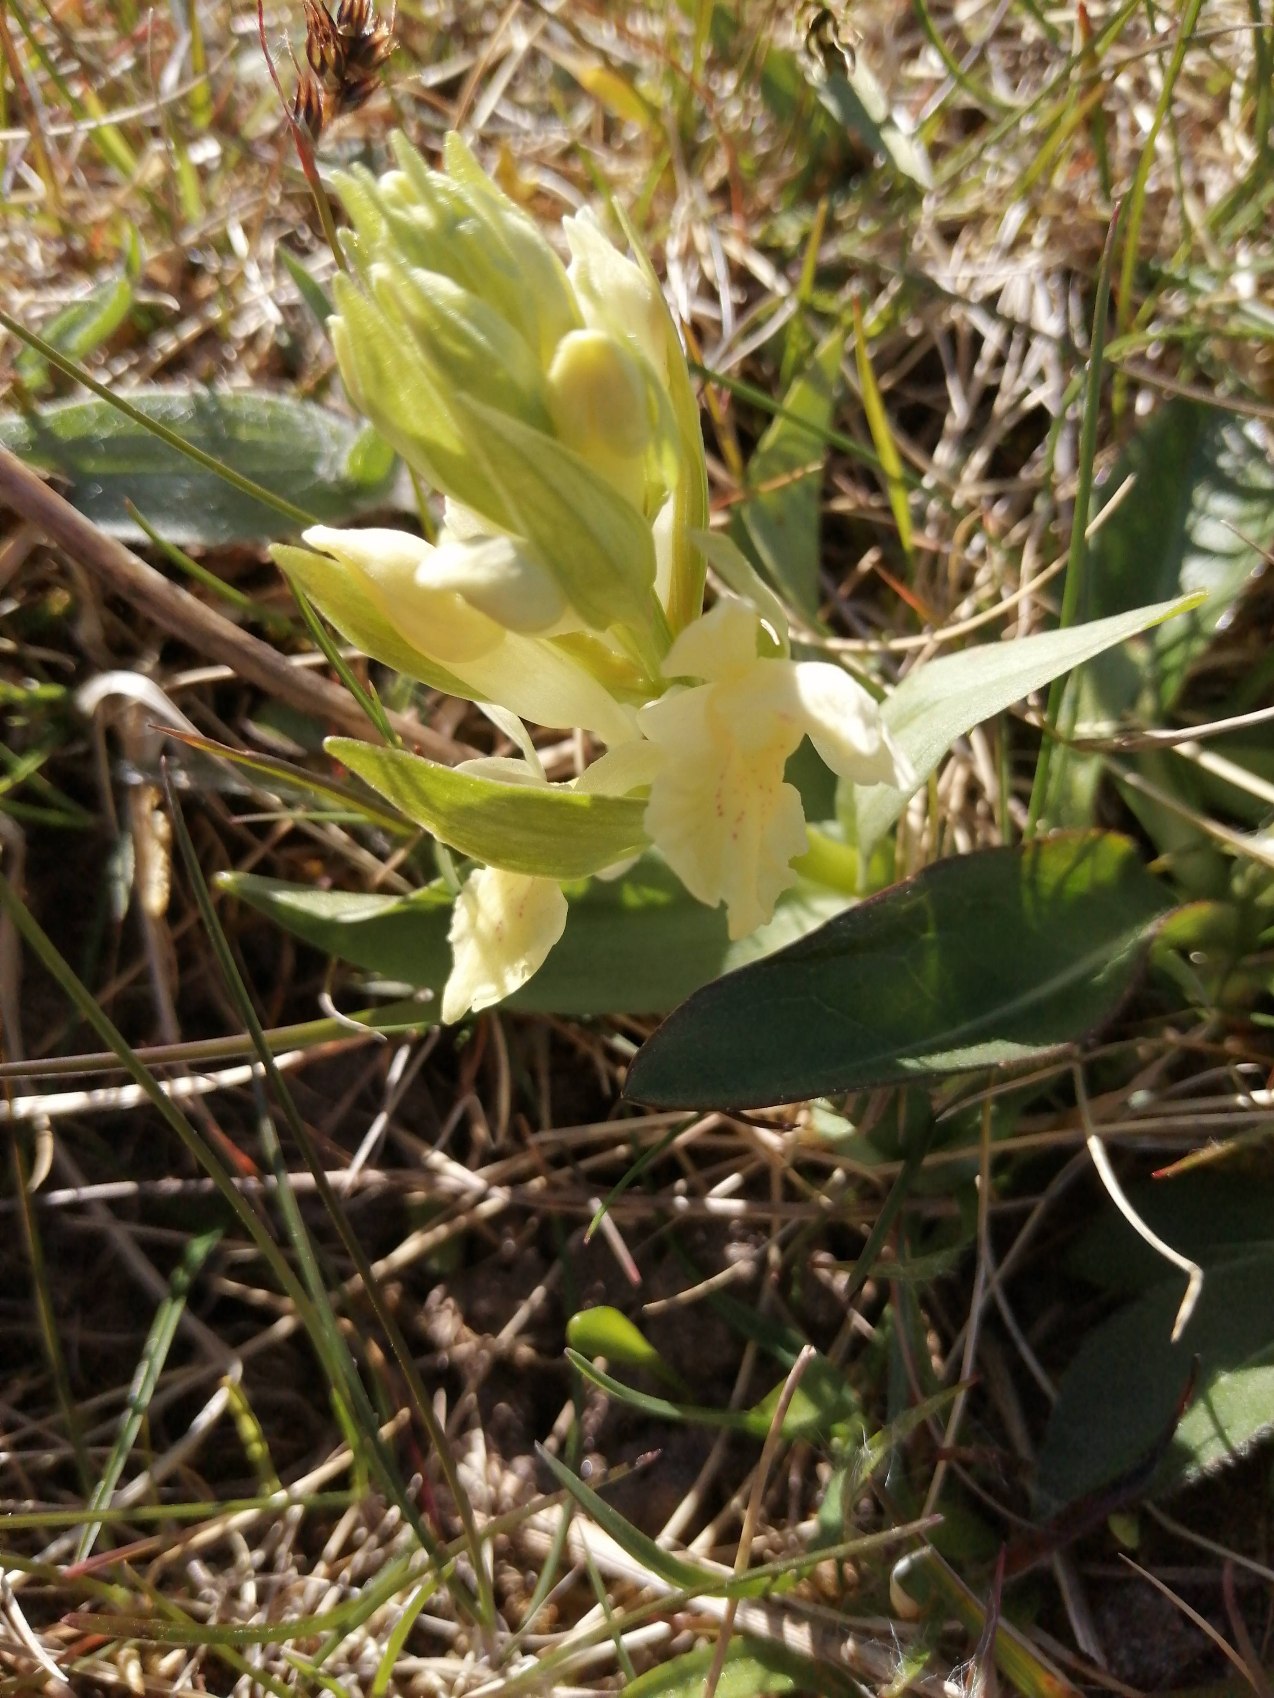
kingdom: Plantae
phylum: Tracheophyta
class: Liliopsida
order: Asparagales
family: Orchidaceae
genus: Dactylorhiza
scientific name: Dactylorhiza sambucina
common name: Hylde-gøgeurt
